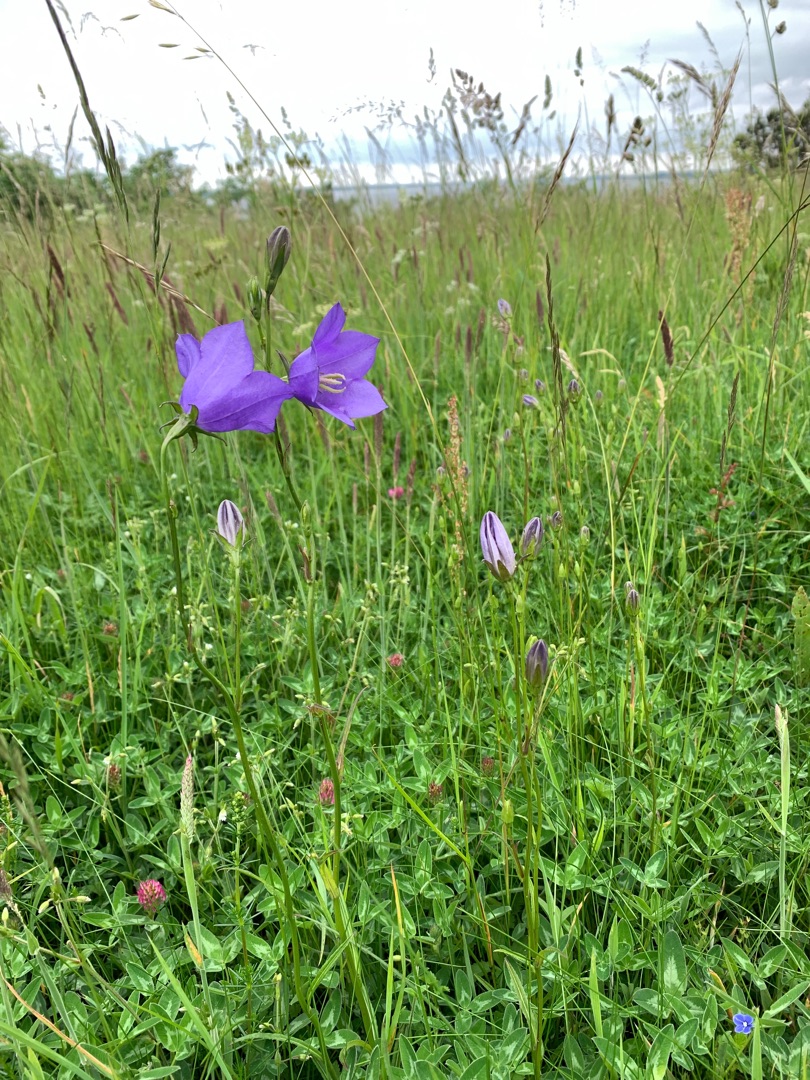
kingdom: Plantae
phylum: Tracheophyta
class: Magnoliopsida
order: Asterales
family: Campanulaceae
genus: Campanula
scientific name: Campanula persicifolia
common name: Smalbladet klokke
